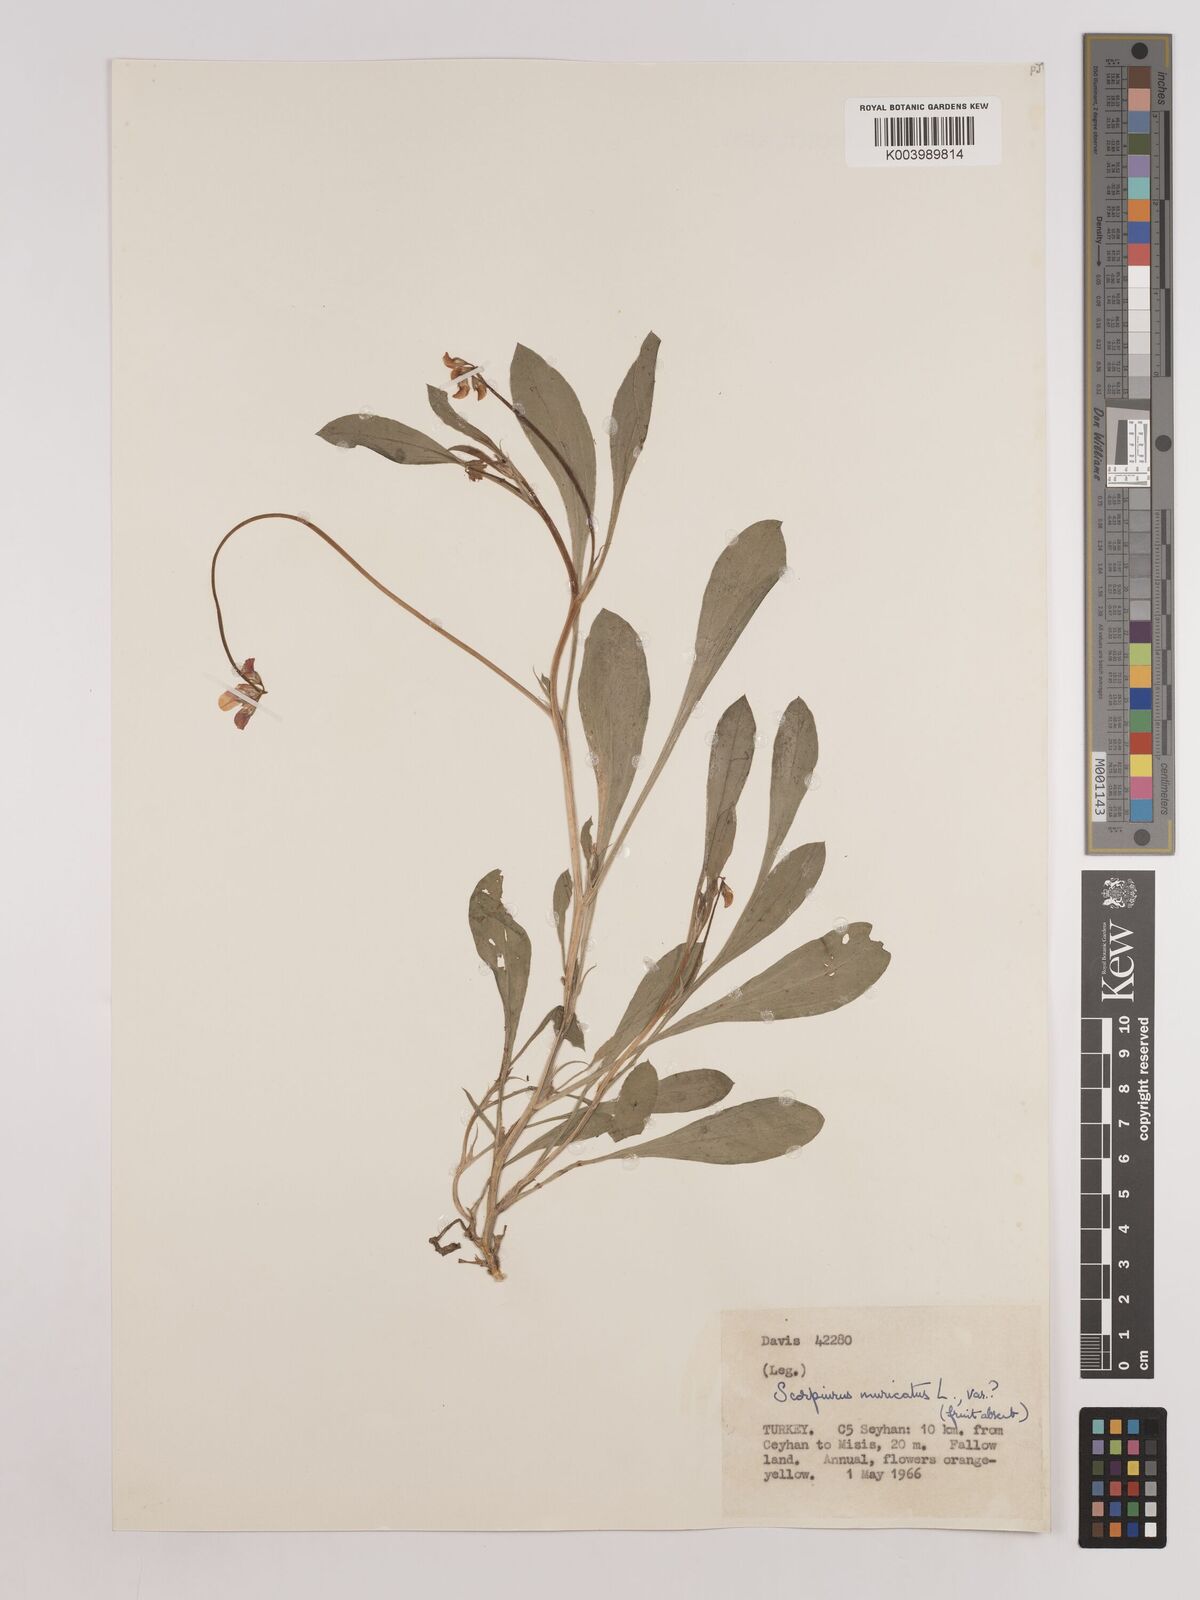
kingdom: Plantae
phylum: Tracheophyta
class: Magnoliopsida
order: Fabales
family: Fabaceae
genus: Scorpiurus
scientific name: Scorpiurus muricatus
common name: Caterpillar-plant
